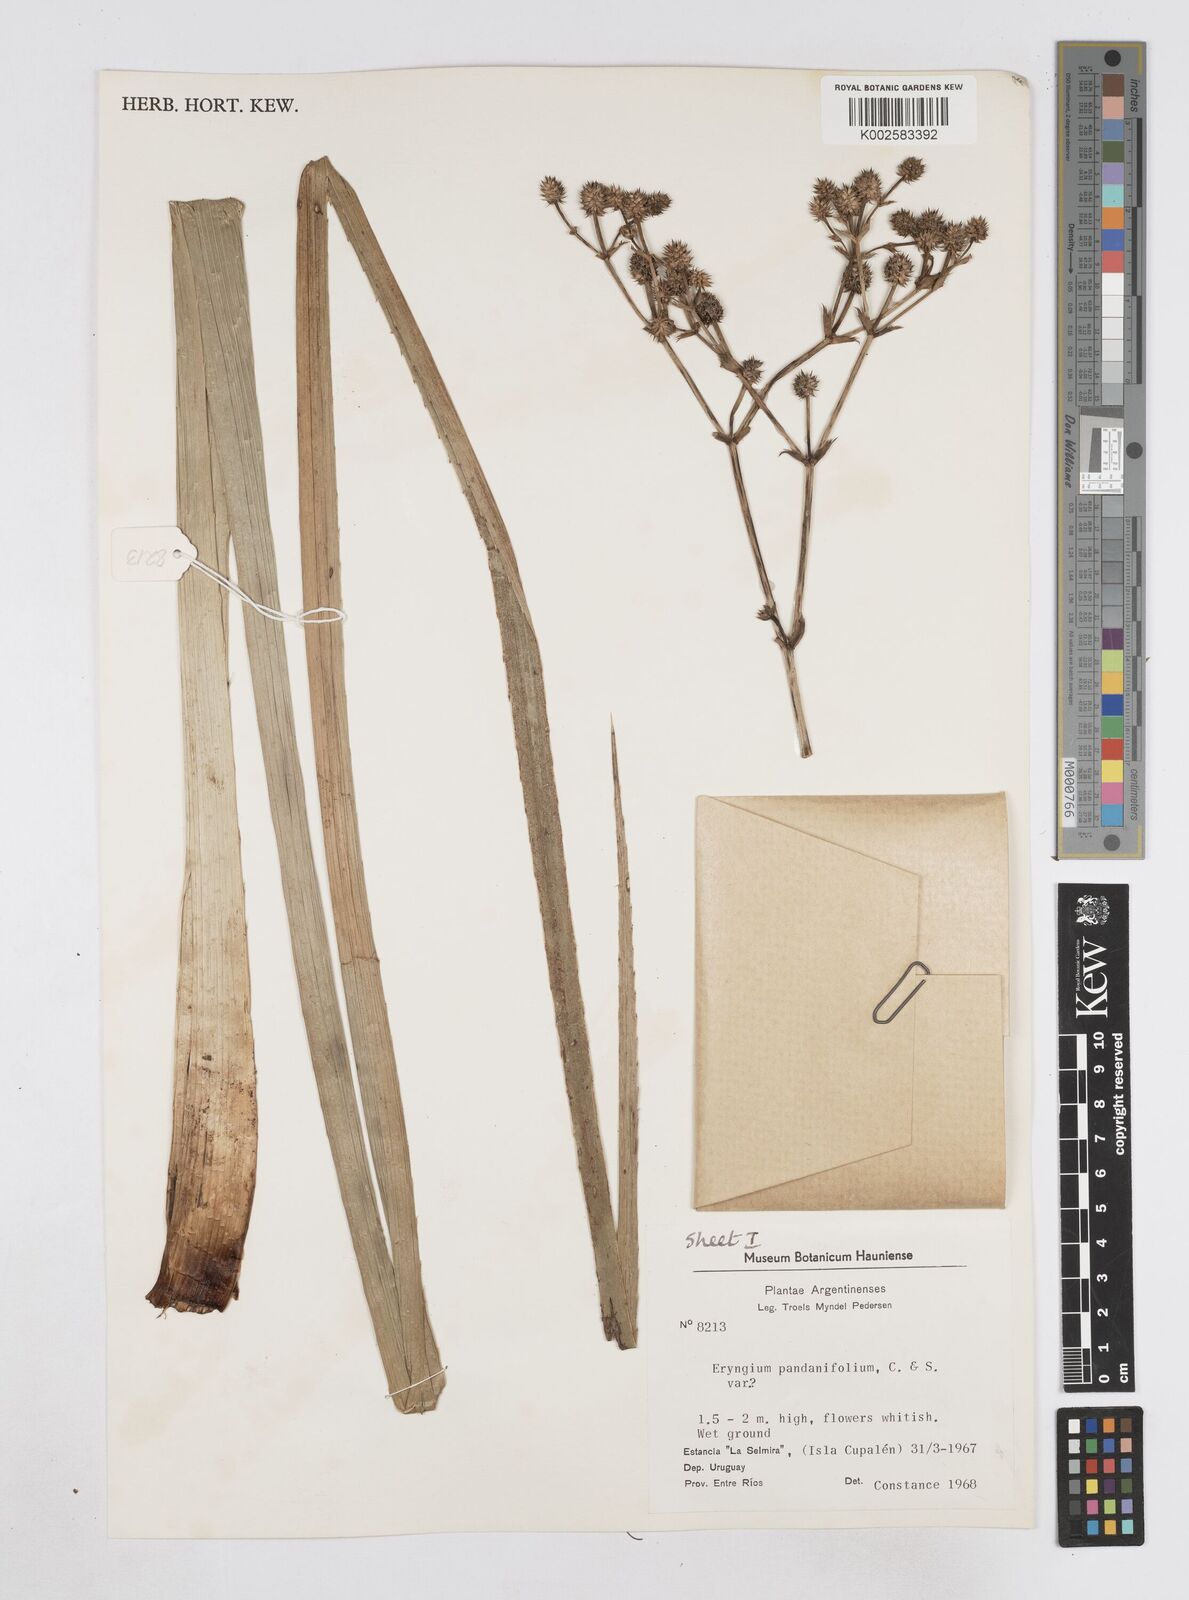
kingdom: Plantae
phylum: Tracheophyta
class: Magnoliopsida
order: Apiales
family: Apiaceae
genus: Eryngium
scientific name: Eryngium pandanifolium
